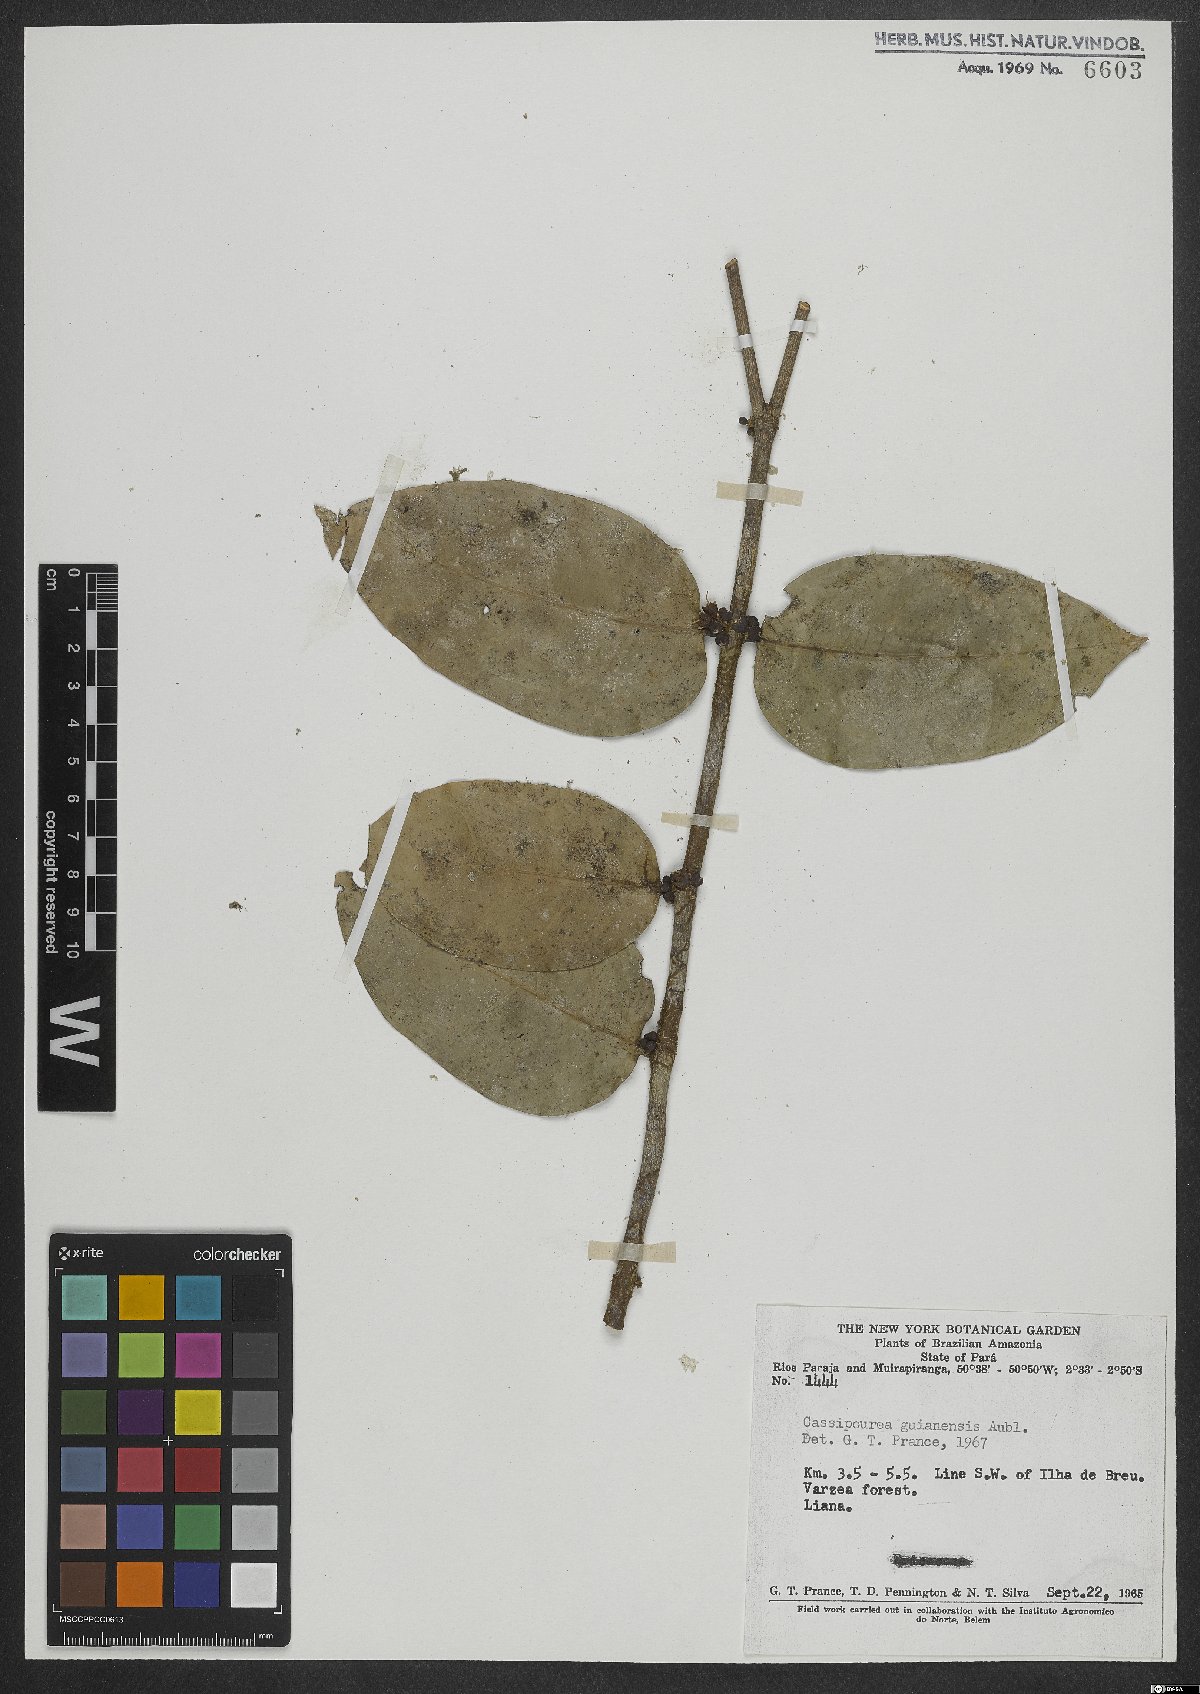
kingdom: Plantae
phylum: Tracheophyta
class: Magnoliopsida
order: Malpighiales
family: Rhizophoraceae
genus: Cassipourea
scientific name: Cassipourea guianensis
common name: Bastard waterwood
